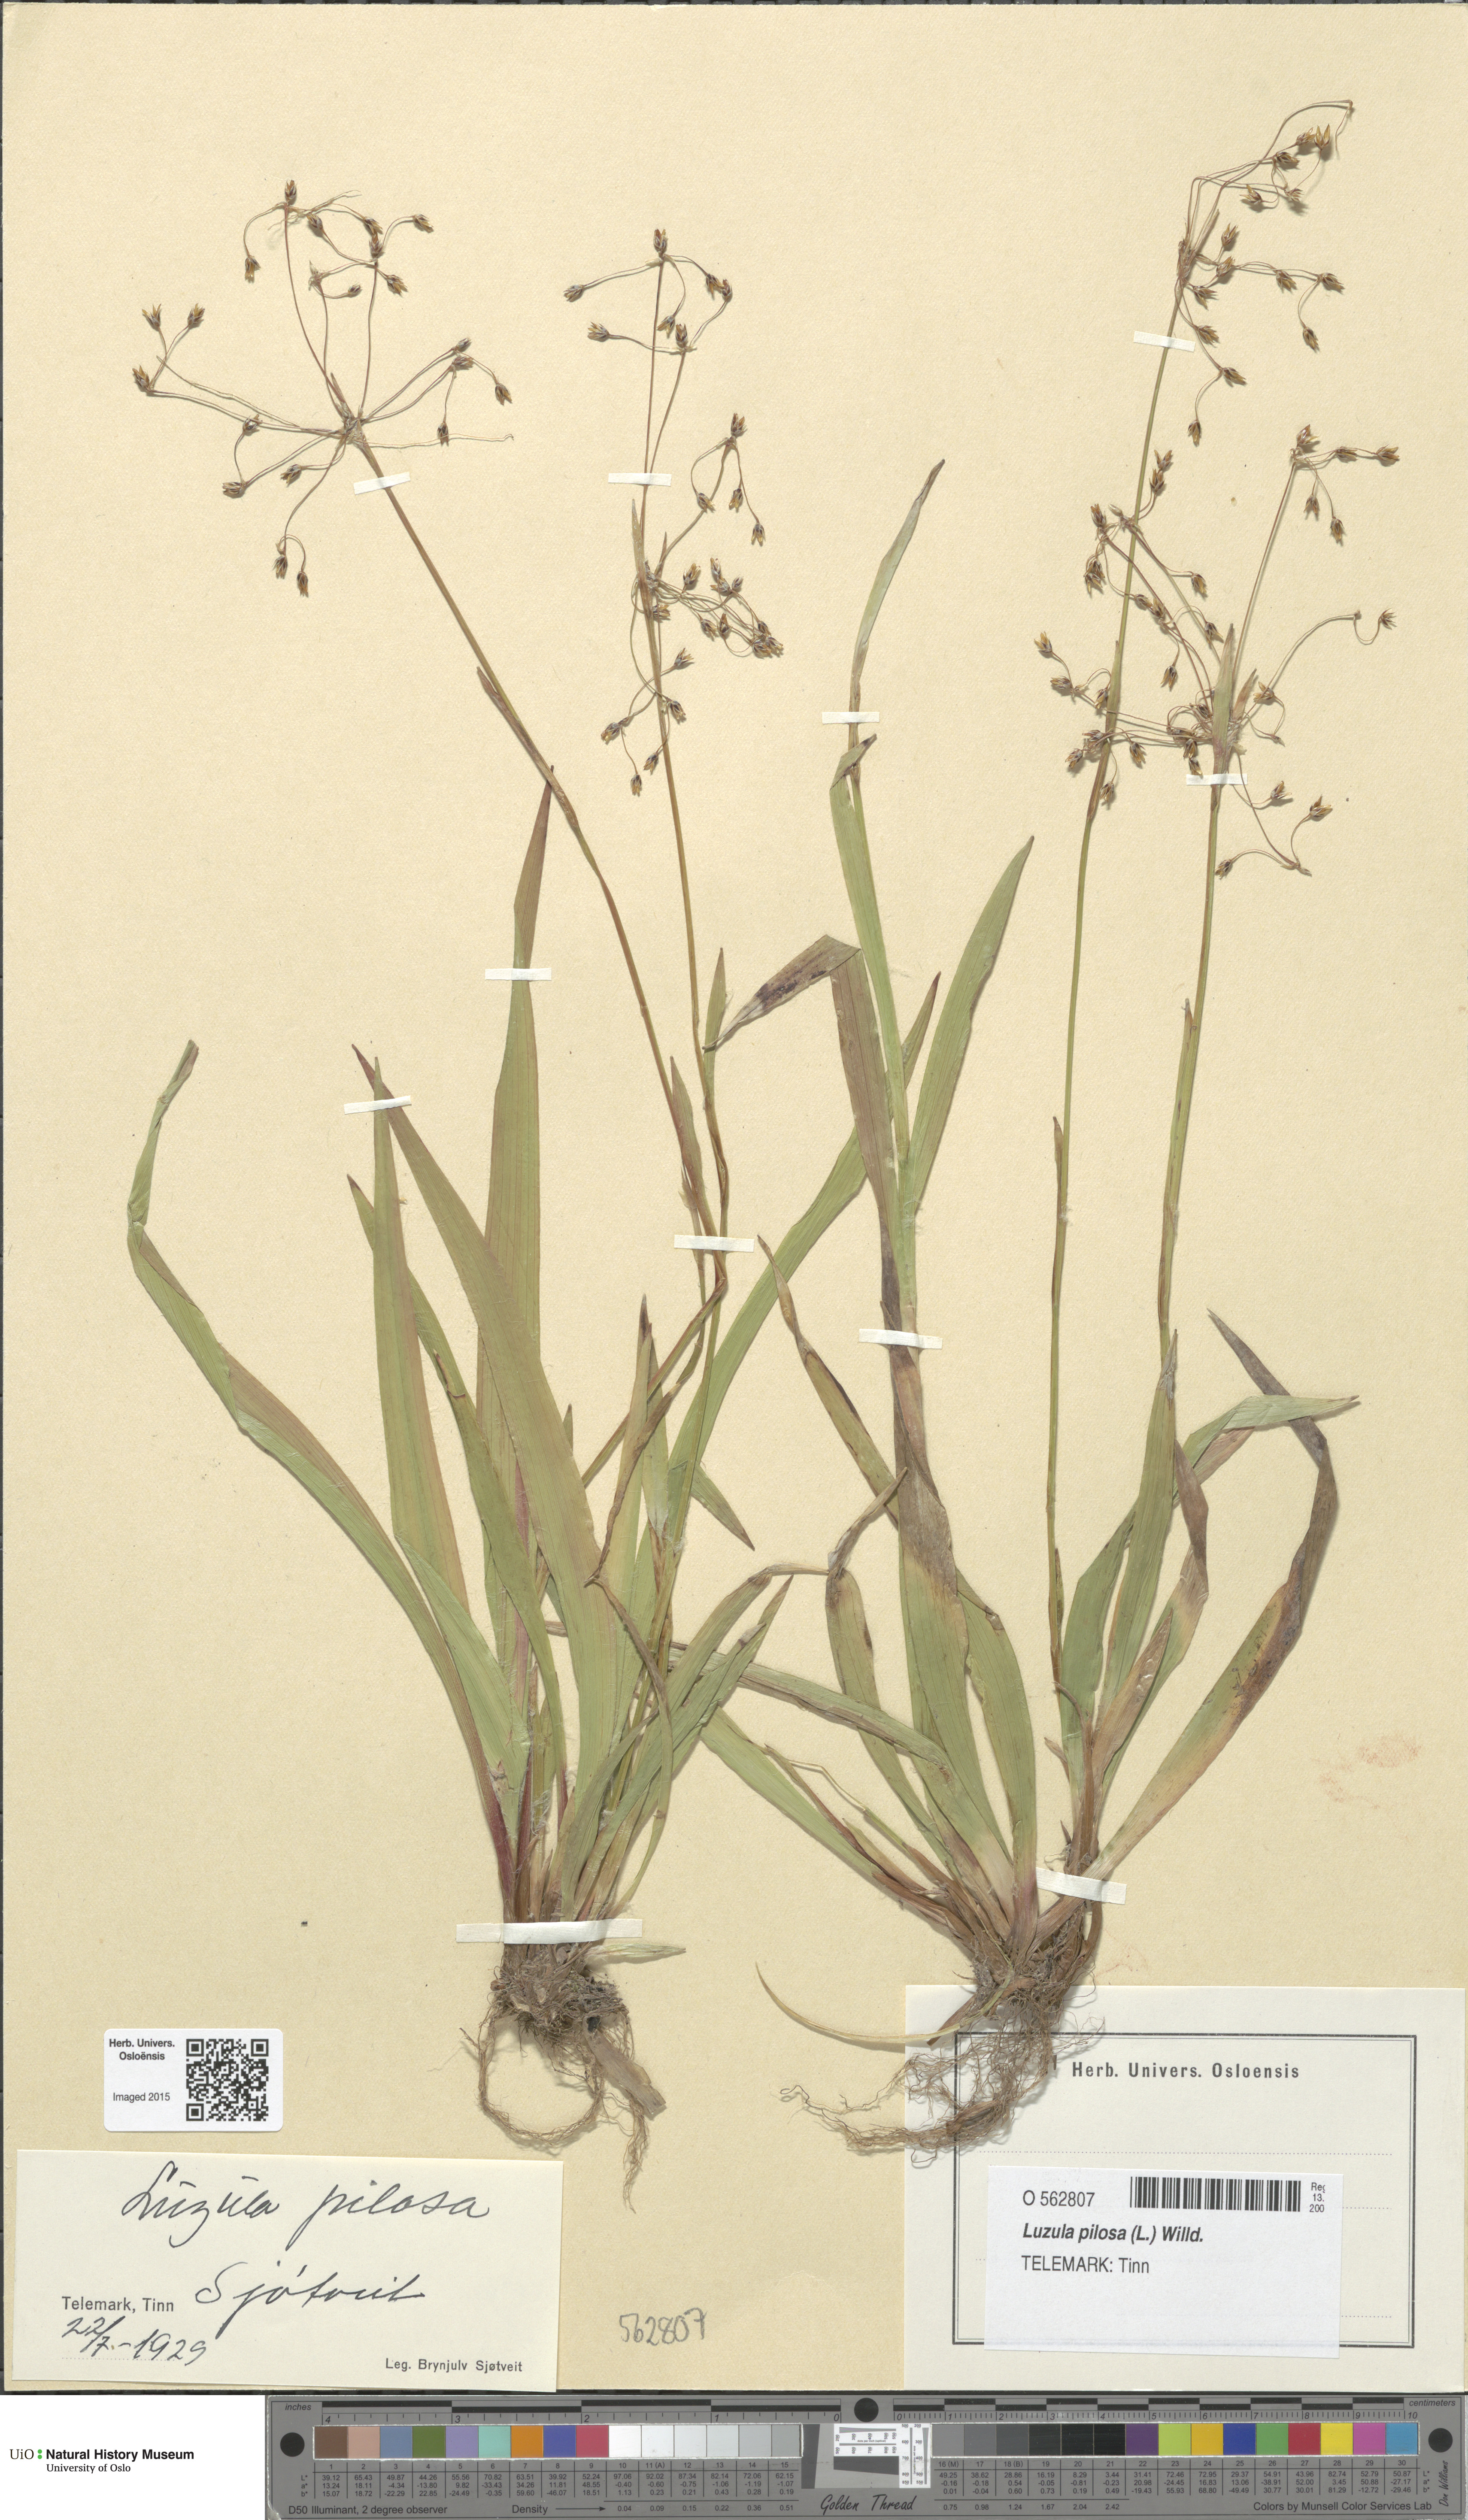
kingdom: Plantae
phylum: Tracheophyta
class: Liliopsida
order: Poales
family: Juncaceae
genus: Luzula
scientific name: Luzula pilosa
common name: Hairy wood-rush
